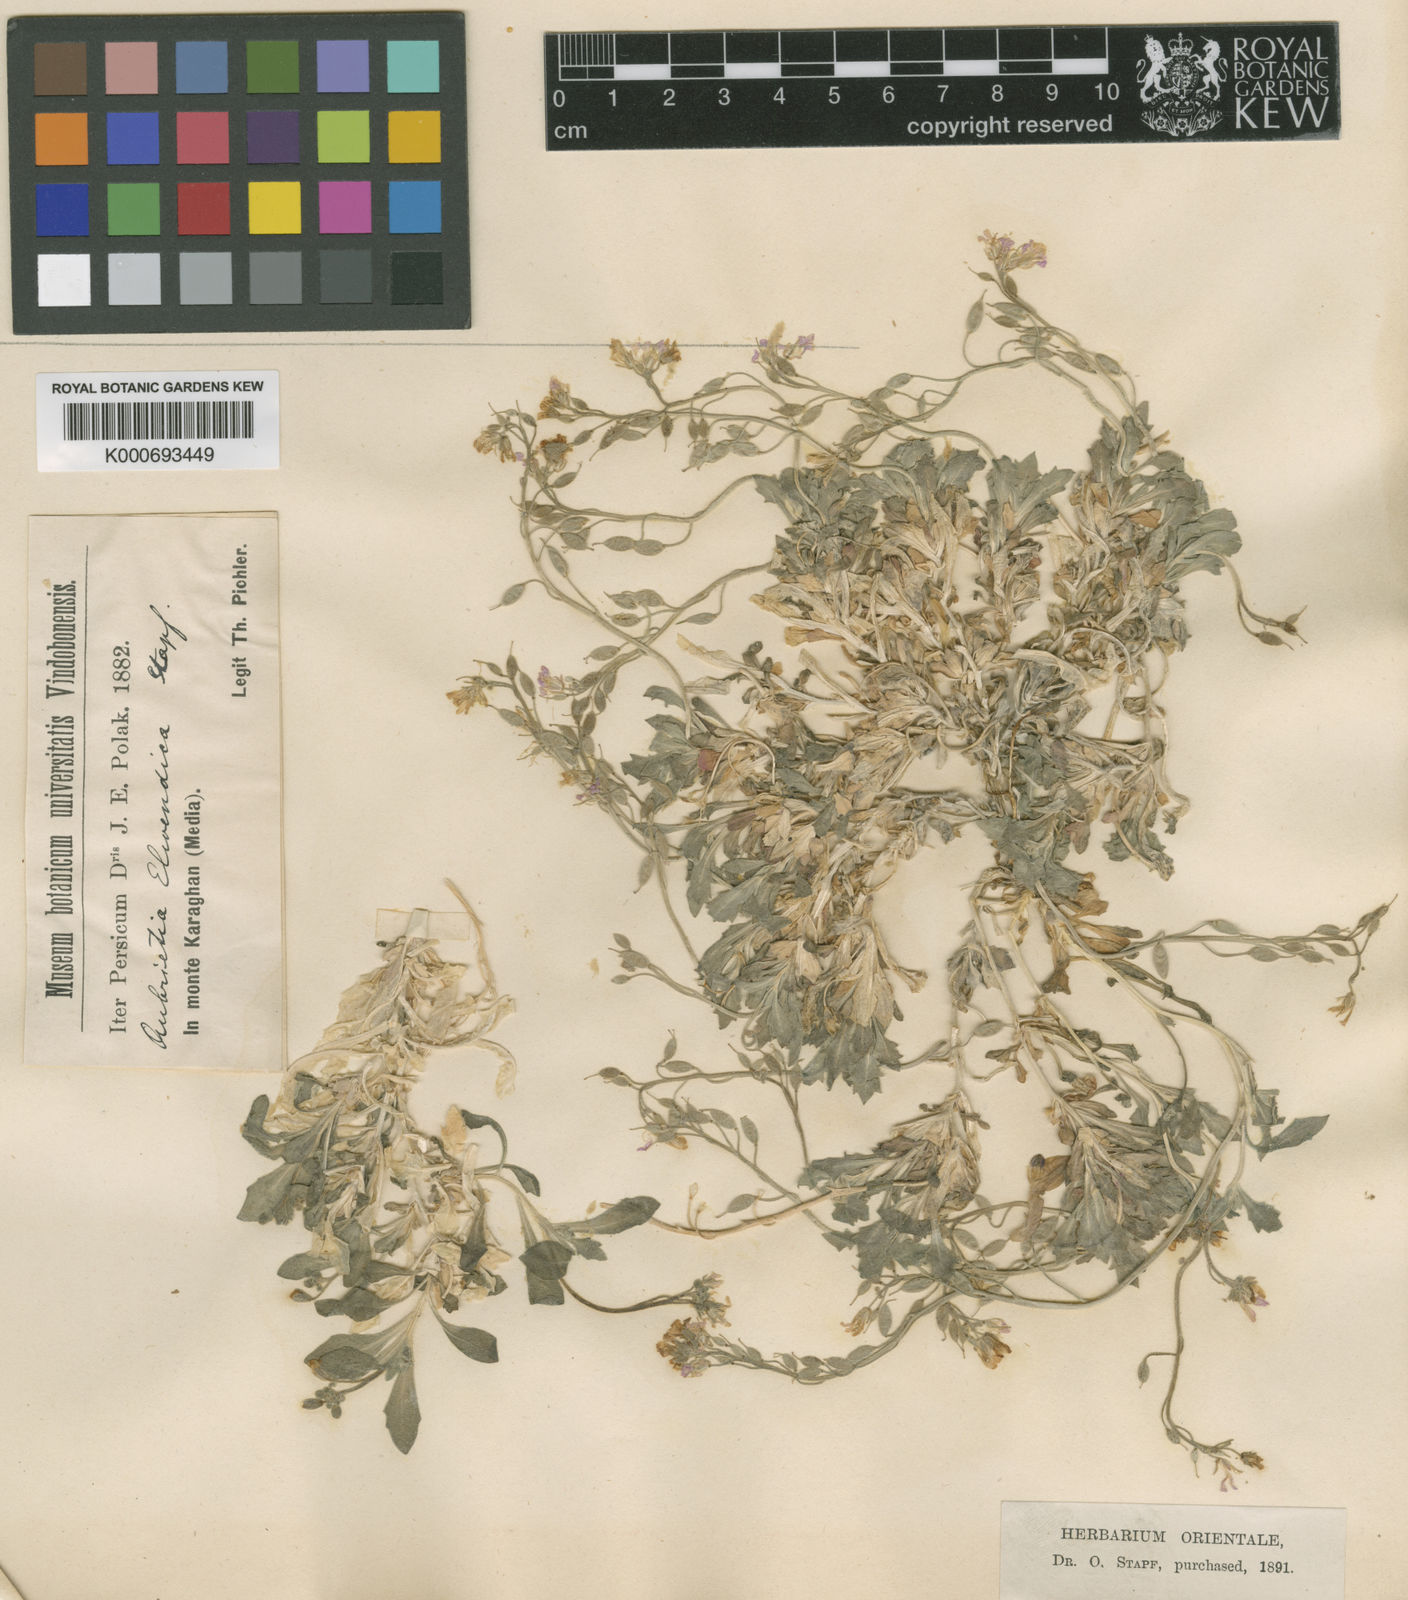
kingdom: Plantae
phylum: Tracheophyta
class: Magnoliopsida
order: Brassicales
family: Brassicaceae
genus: Aubrieta
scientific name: Aubrieta parviflora
